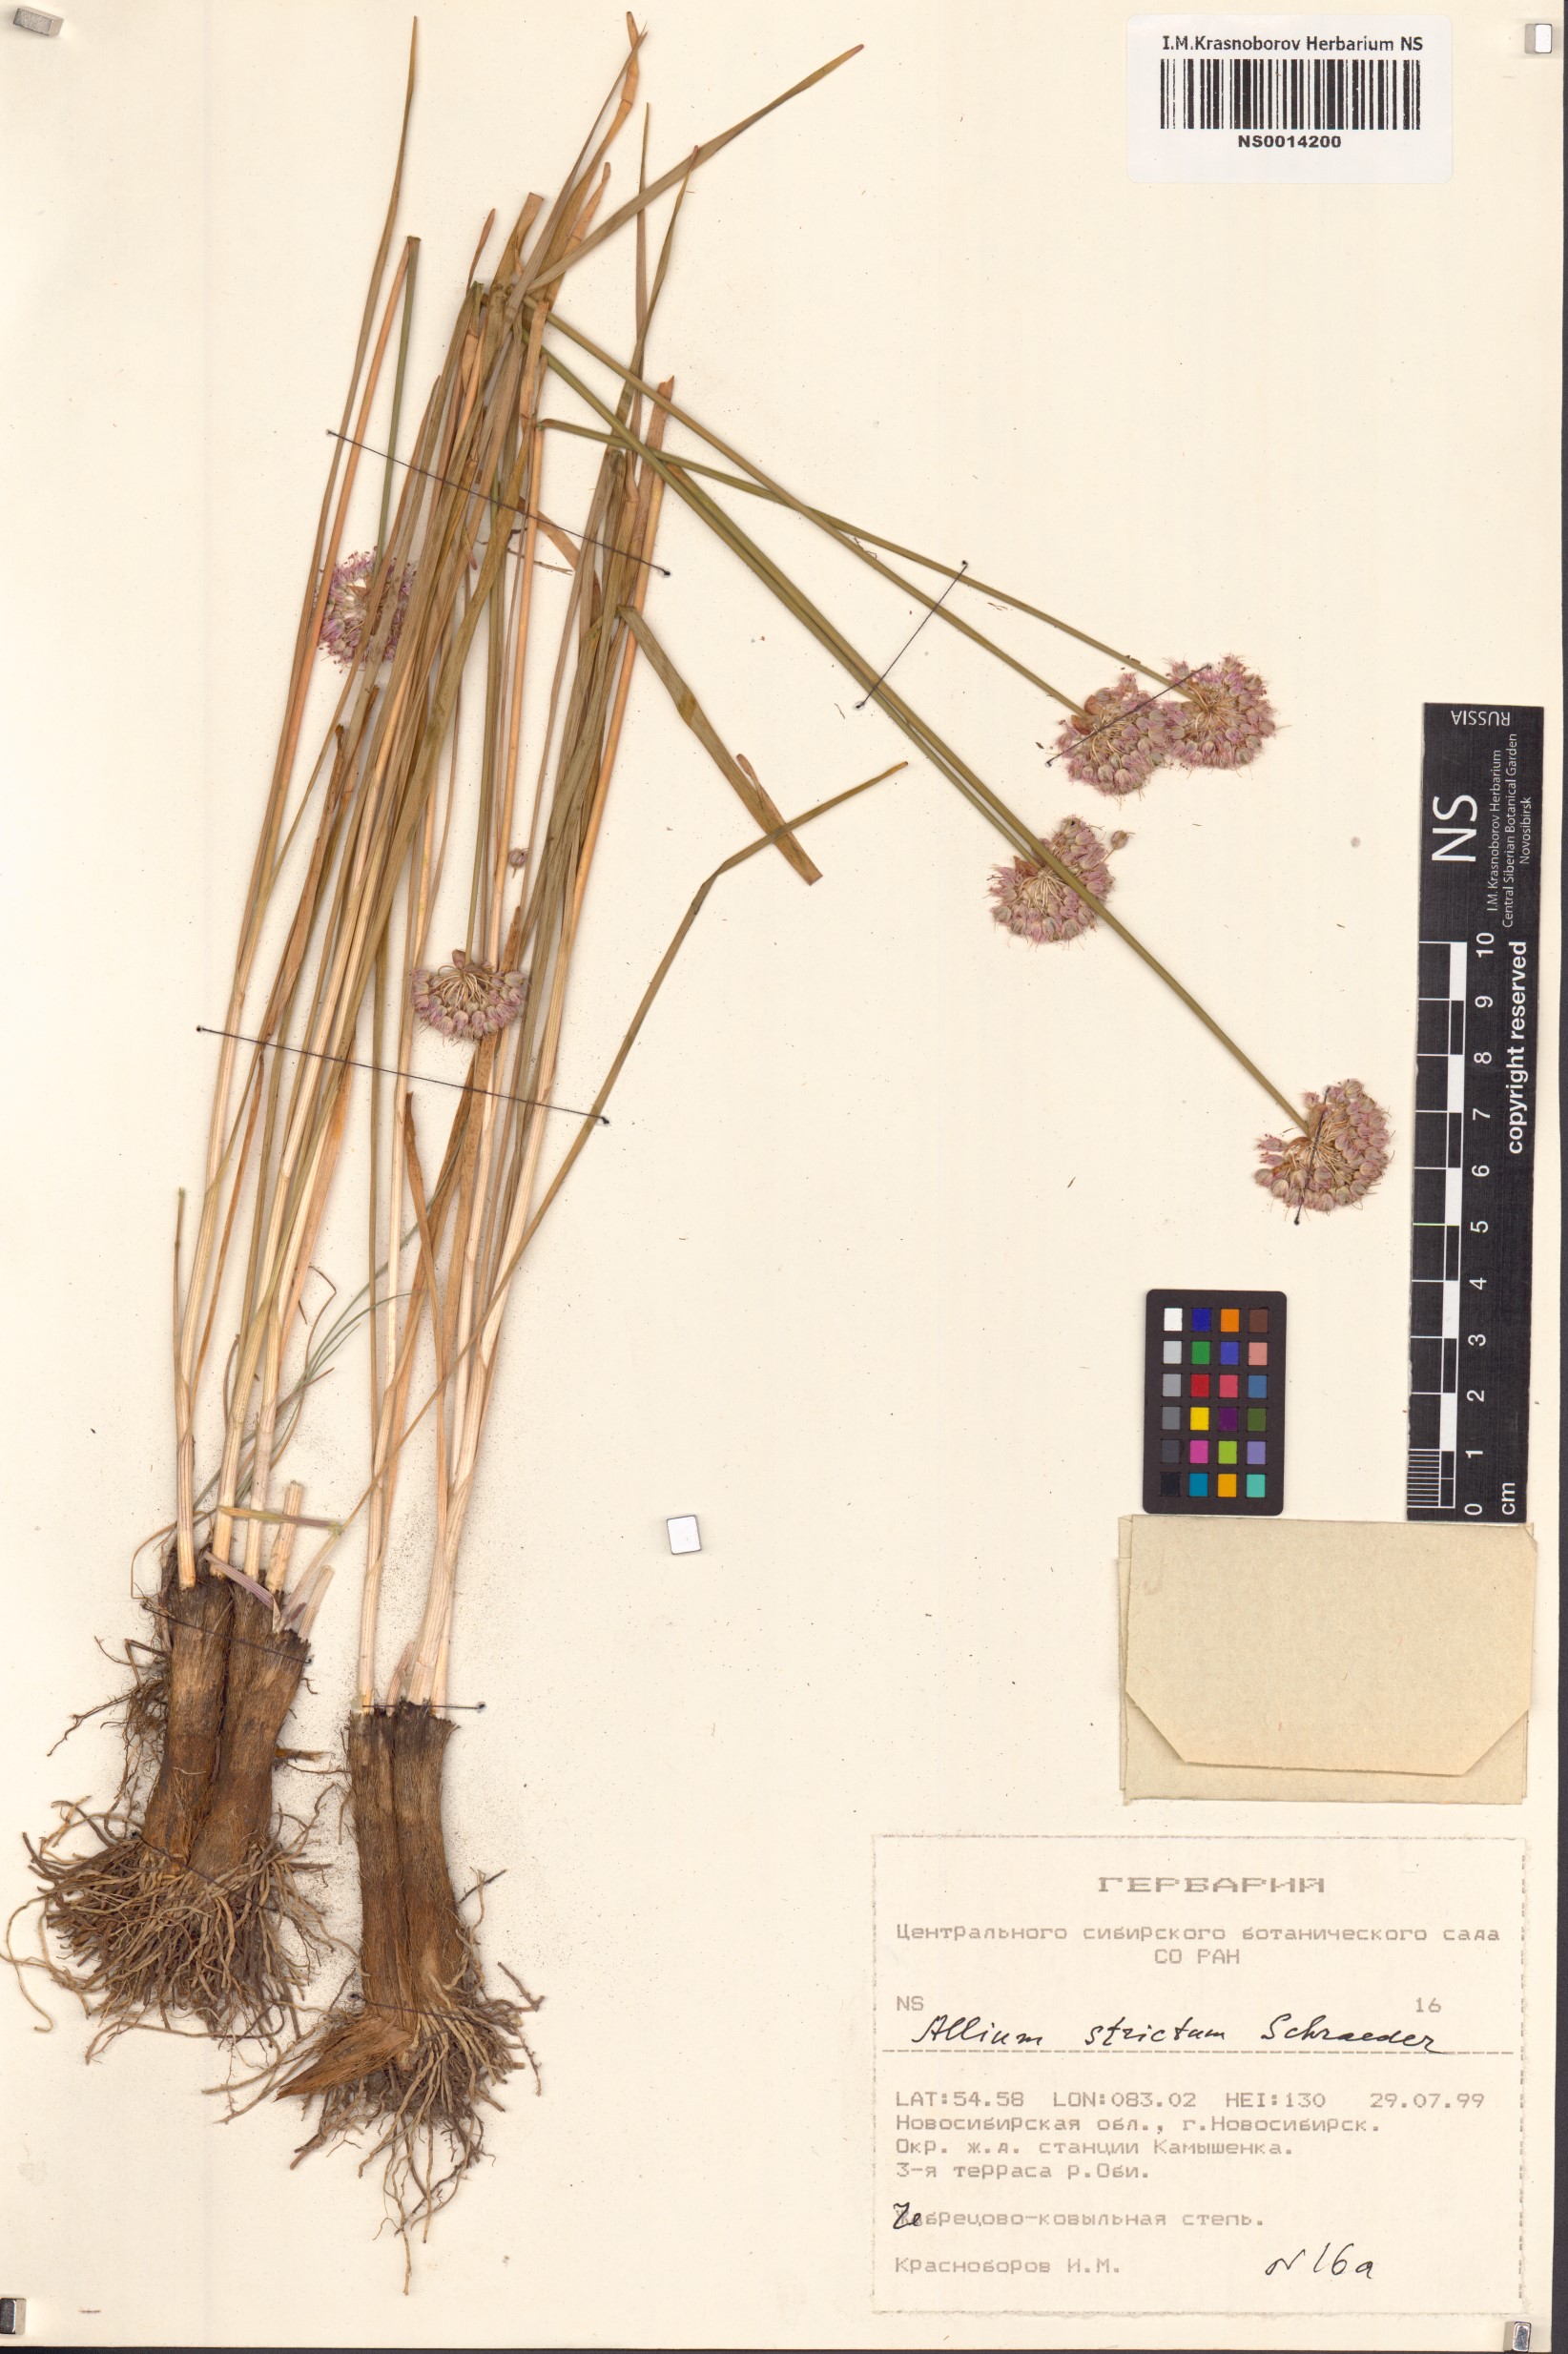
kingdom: Plantae
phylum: Tracheophyta
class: Liliopsida
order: Asparagales
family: Amaryllidaceae
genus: Allium
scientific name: Allium strictum
